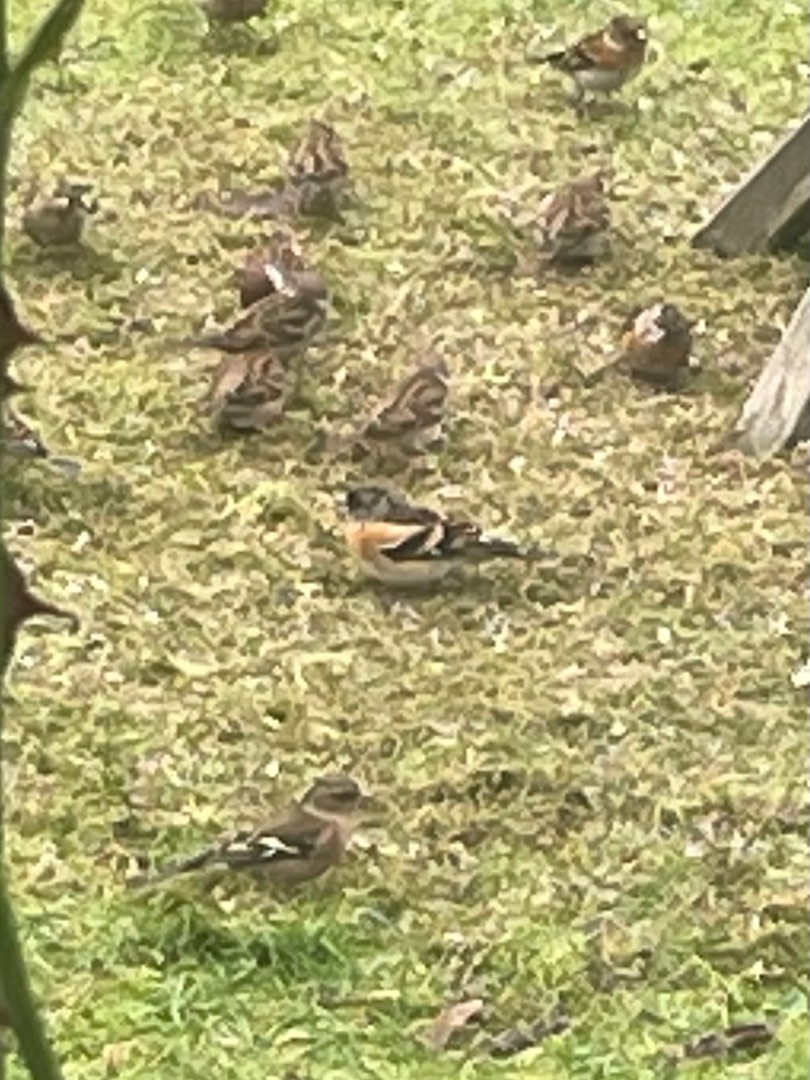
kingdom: Animalia
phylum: Chordata
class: Aves
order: Passeriformes
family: Fringillidae
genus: Fringilla
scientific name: Fringilla montifringilla
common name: Kvækerfinke
